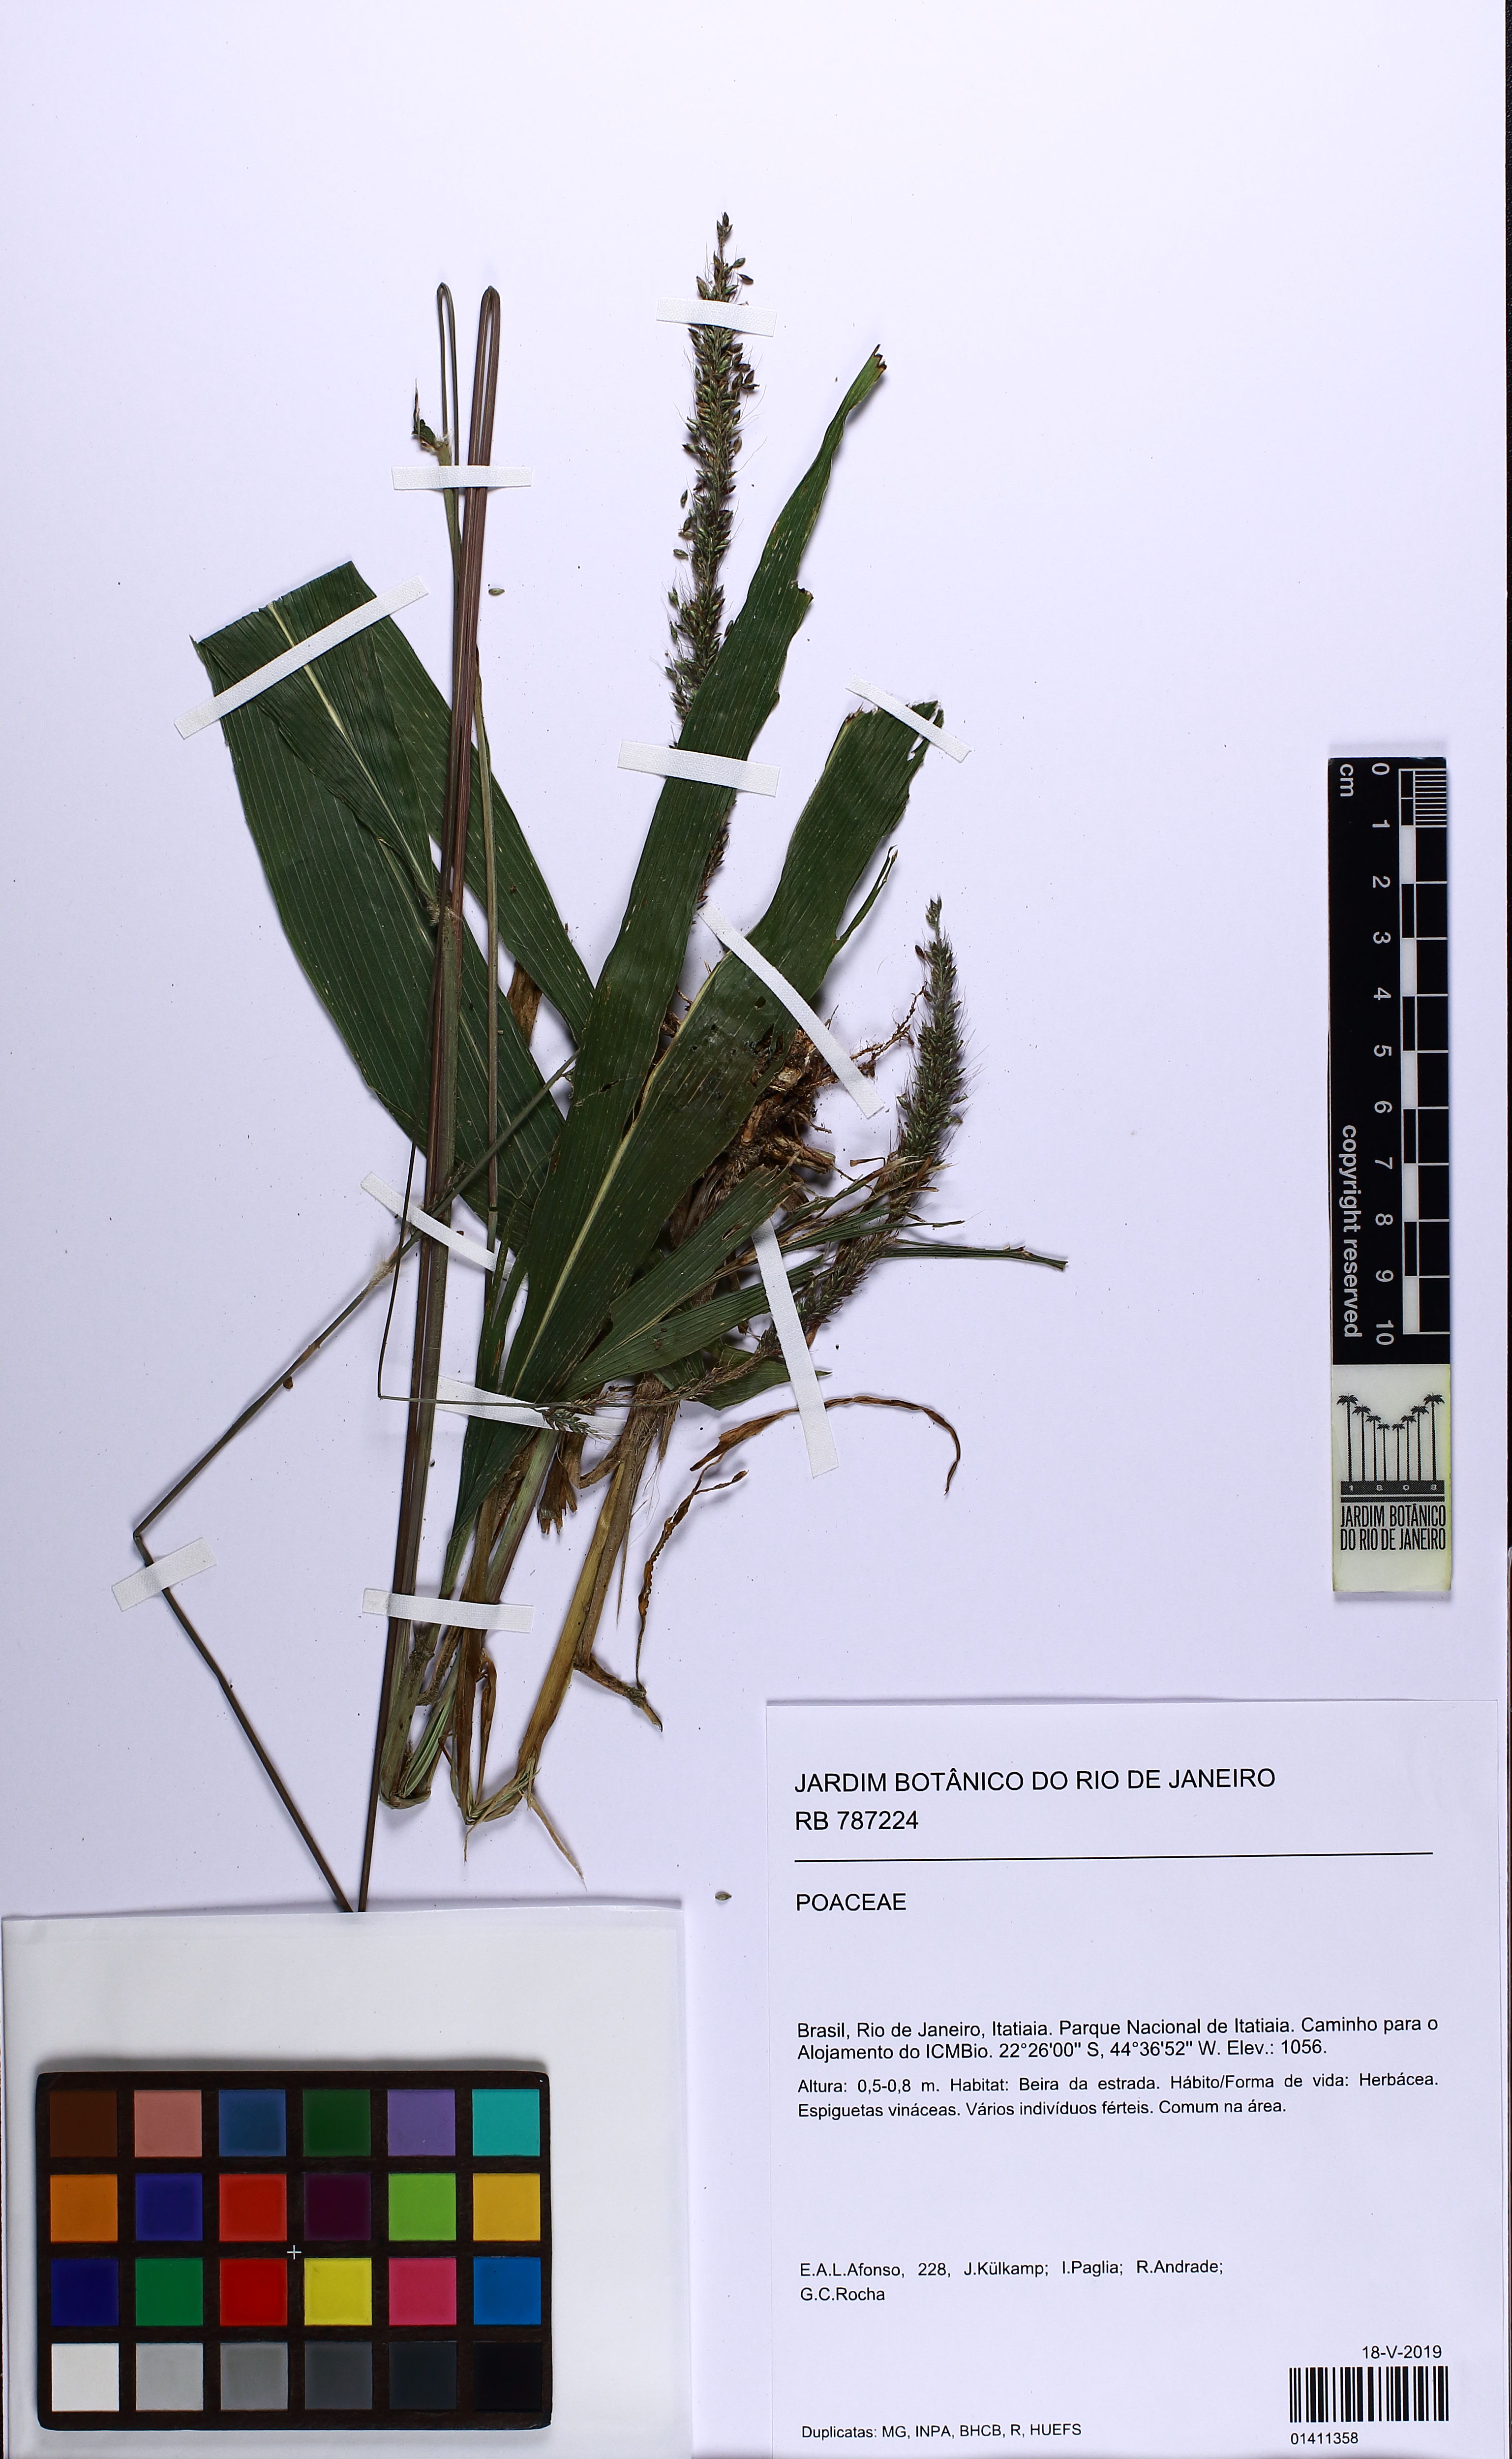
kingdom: Plantae
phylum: Tracheophyta
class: Liliopsida
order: Poales
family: Poaceae
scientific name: Poaceae
